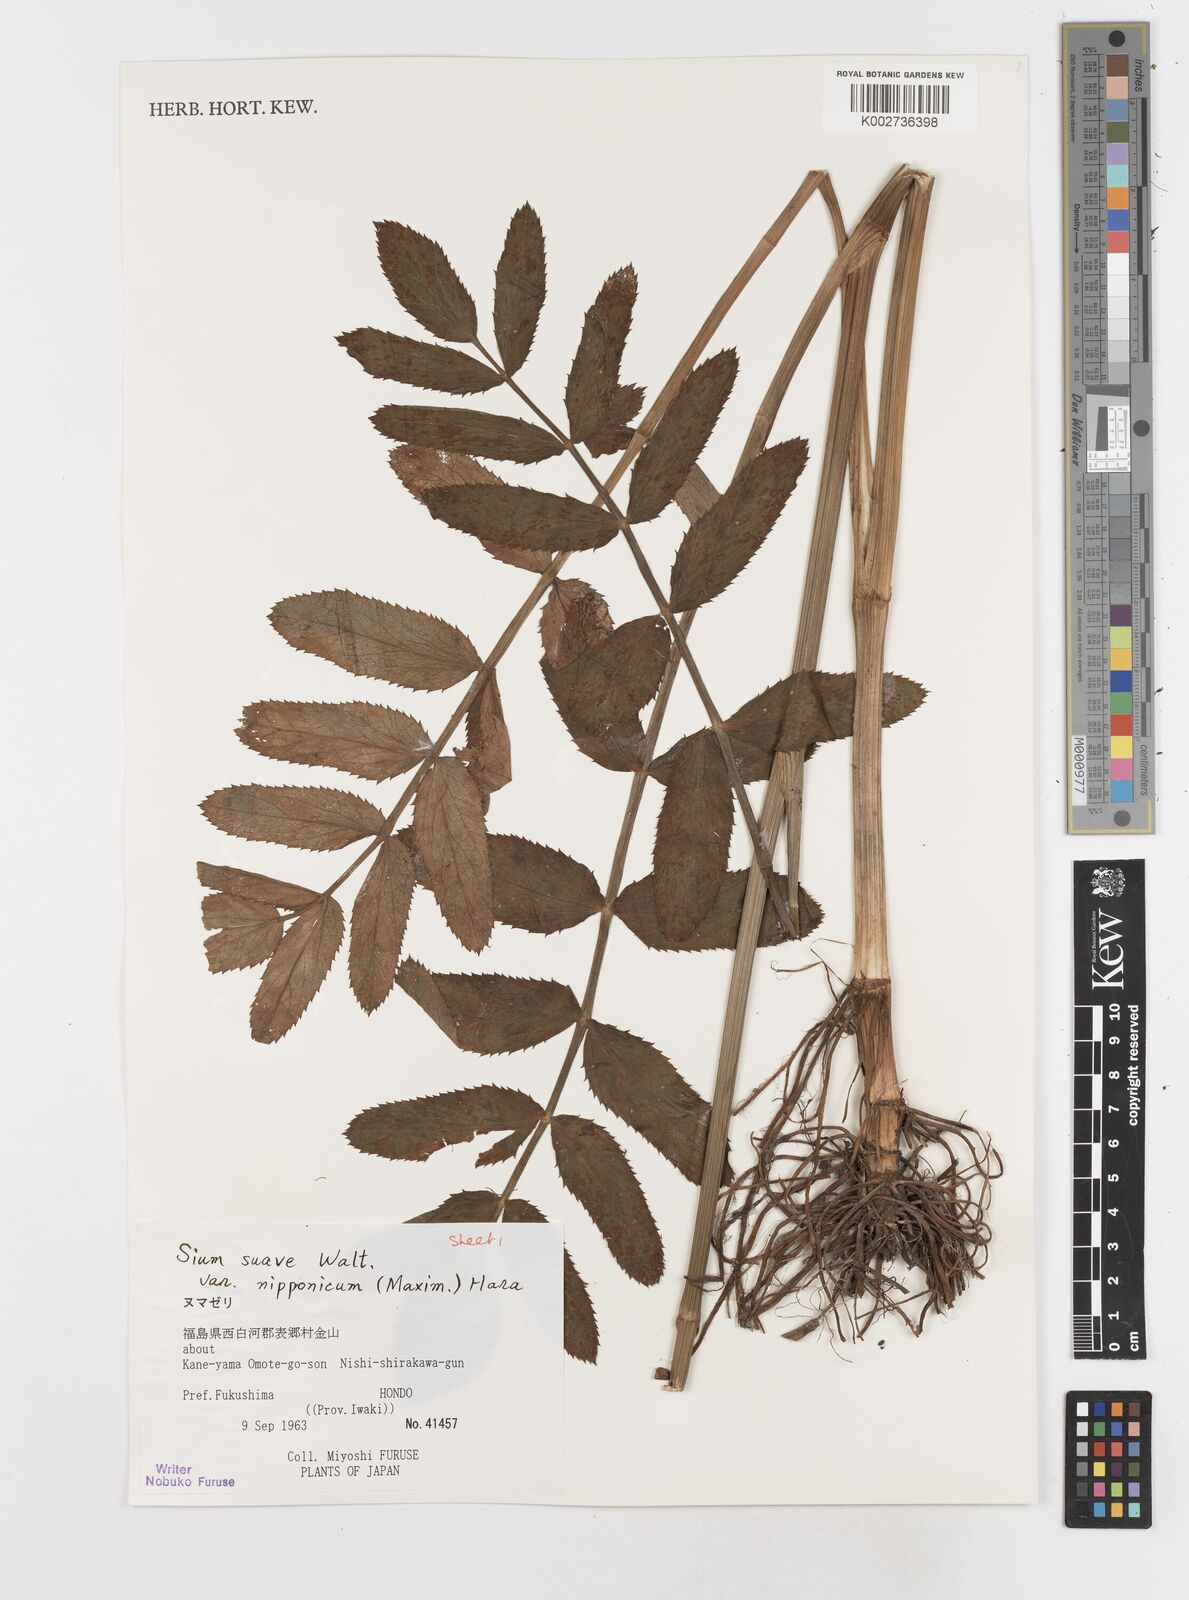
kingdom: Plantae
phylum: Tracheophyta
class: Magnoliopsida
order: Apiales
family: Apiaceae
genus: Sium
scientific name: Sium suave
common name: Hemlock water-parsnip
